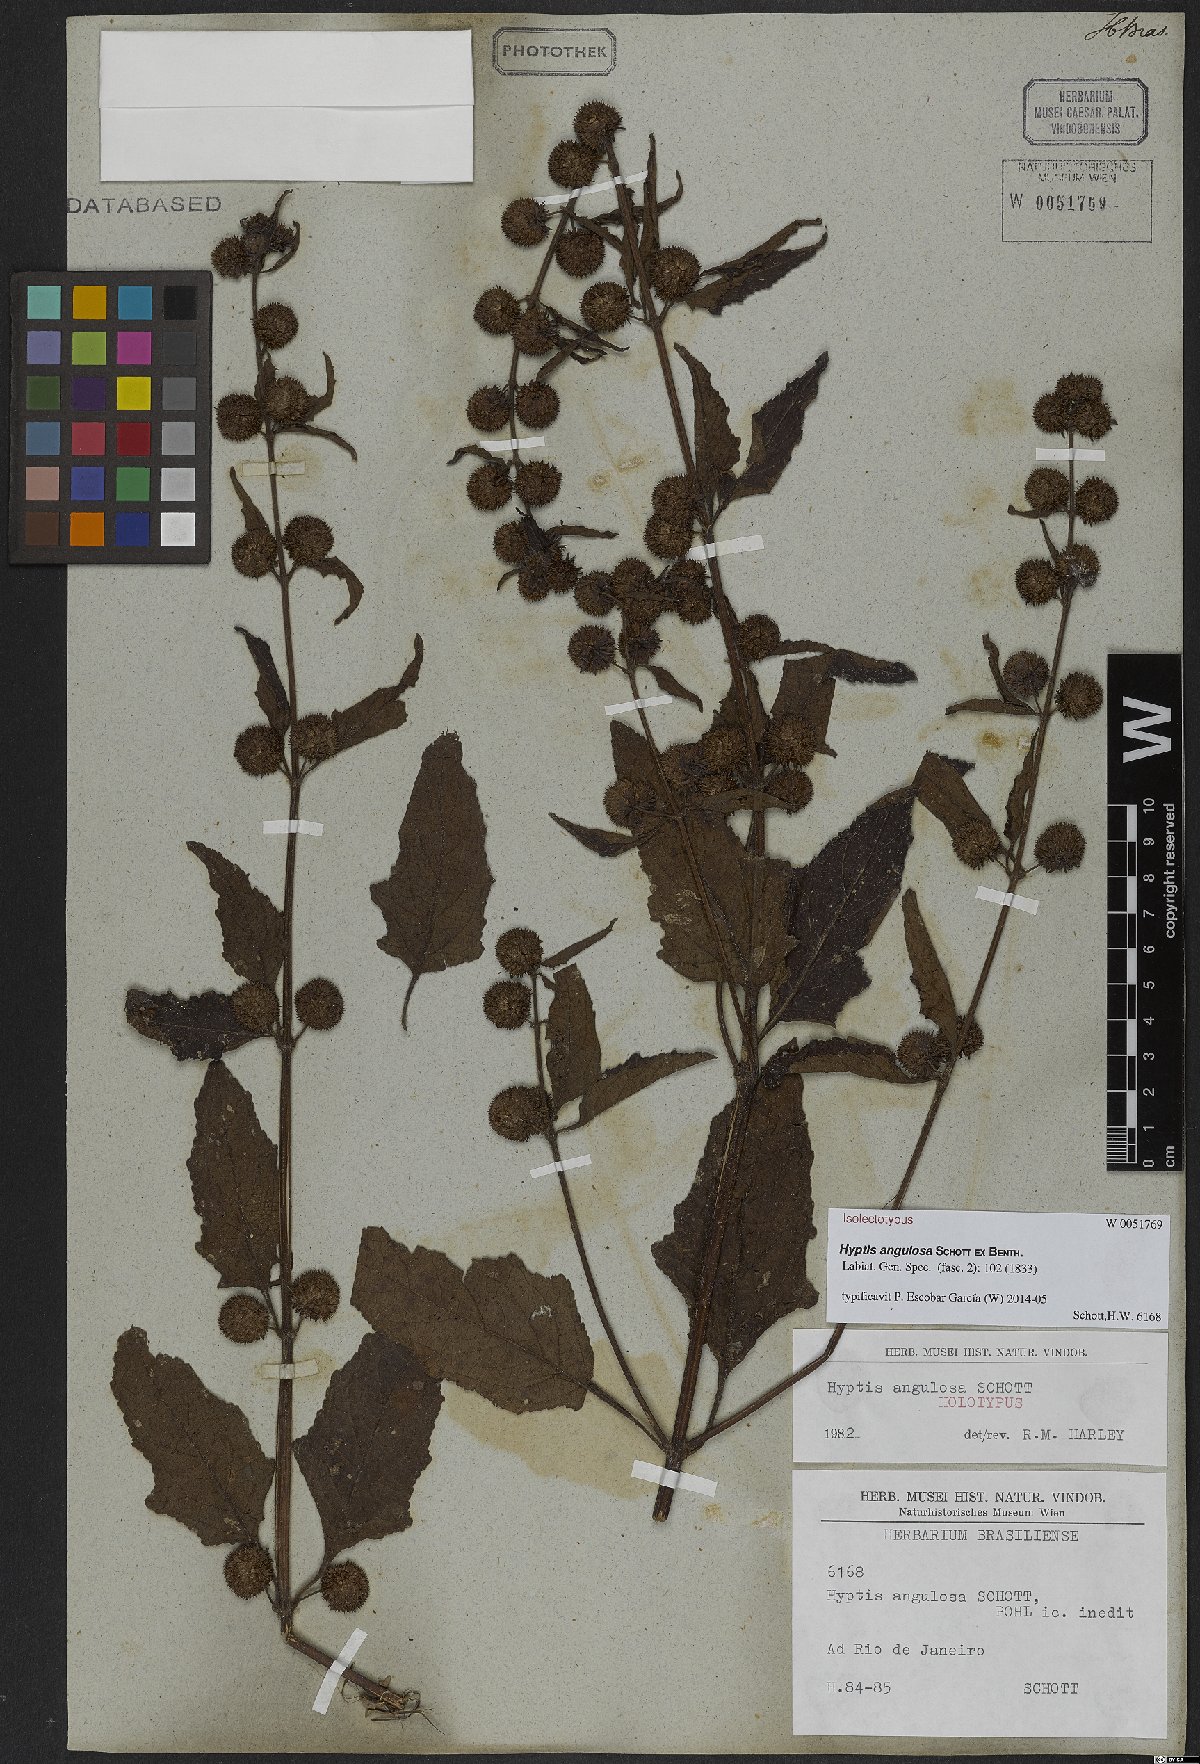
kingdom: Plantae
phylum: Tracheophyta
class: Magnoliopsida
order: Lamiales
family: Lamiaceae
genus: Hyptis
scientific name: Hyptis angulosa
